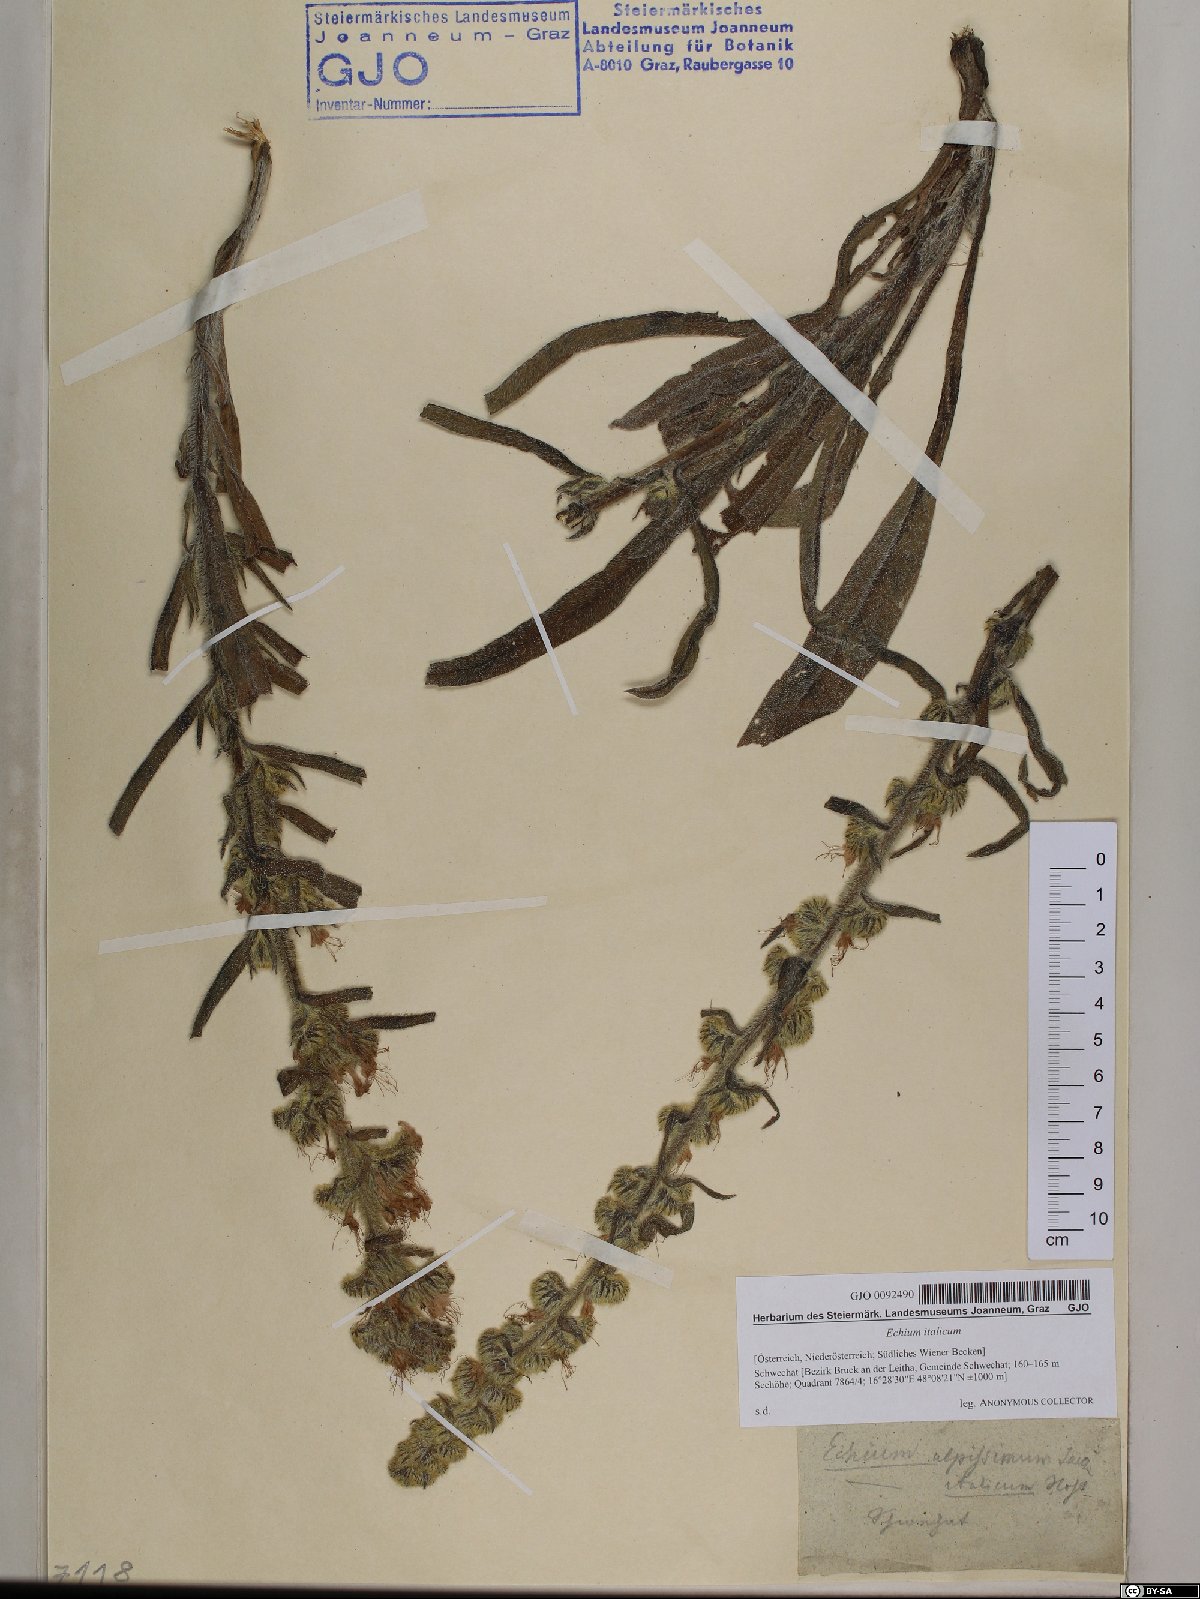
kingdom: Plantae
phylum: Tracheophyta
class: Magnoliopsida
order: Boraginales
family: Boraginaceae
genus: Echium
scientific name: Echium italicum
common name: Italian viper's bugloss
